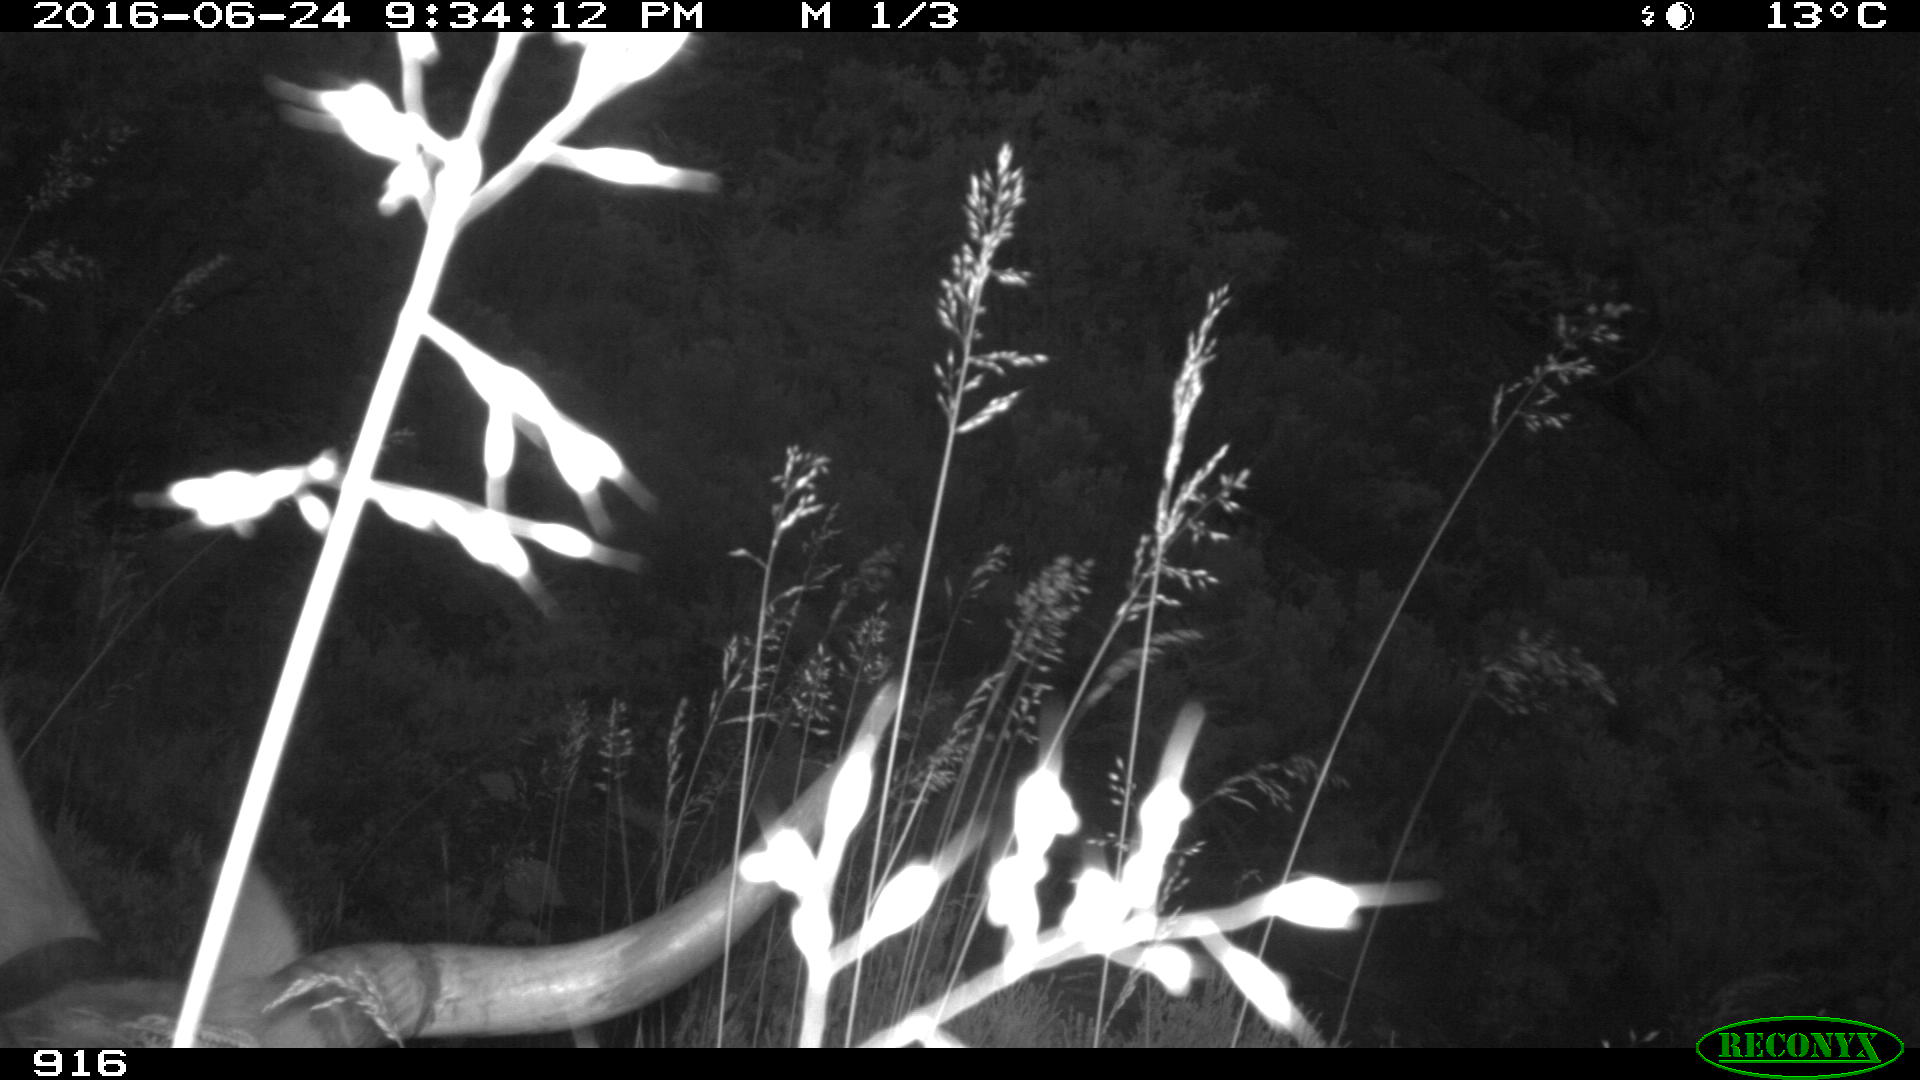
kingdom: Animalia
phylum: Chordata
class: Mammalia
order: Artiodactyla
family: Bovidae
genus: Bos
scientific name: Bos taurus
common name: Domesticated cattle
